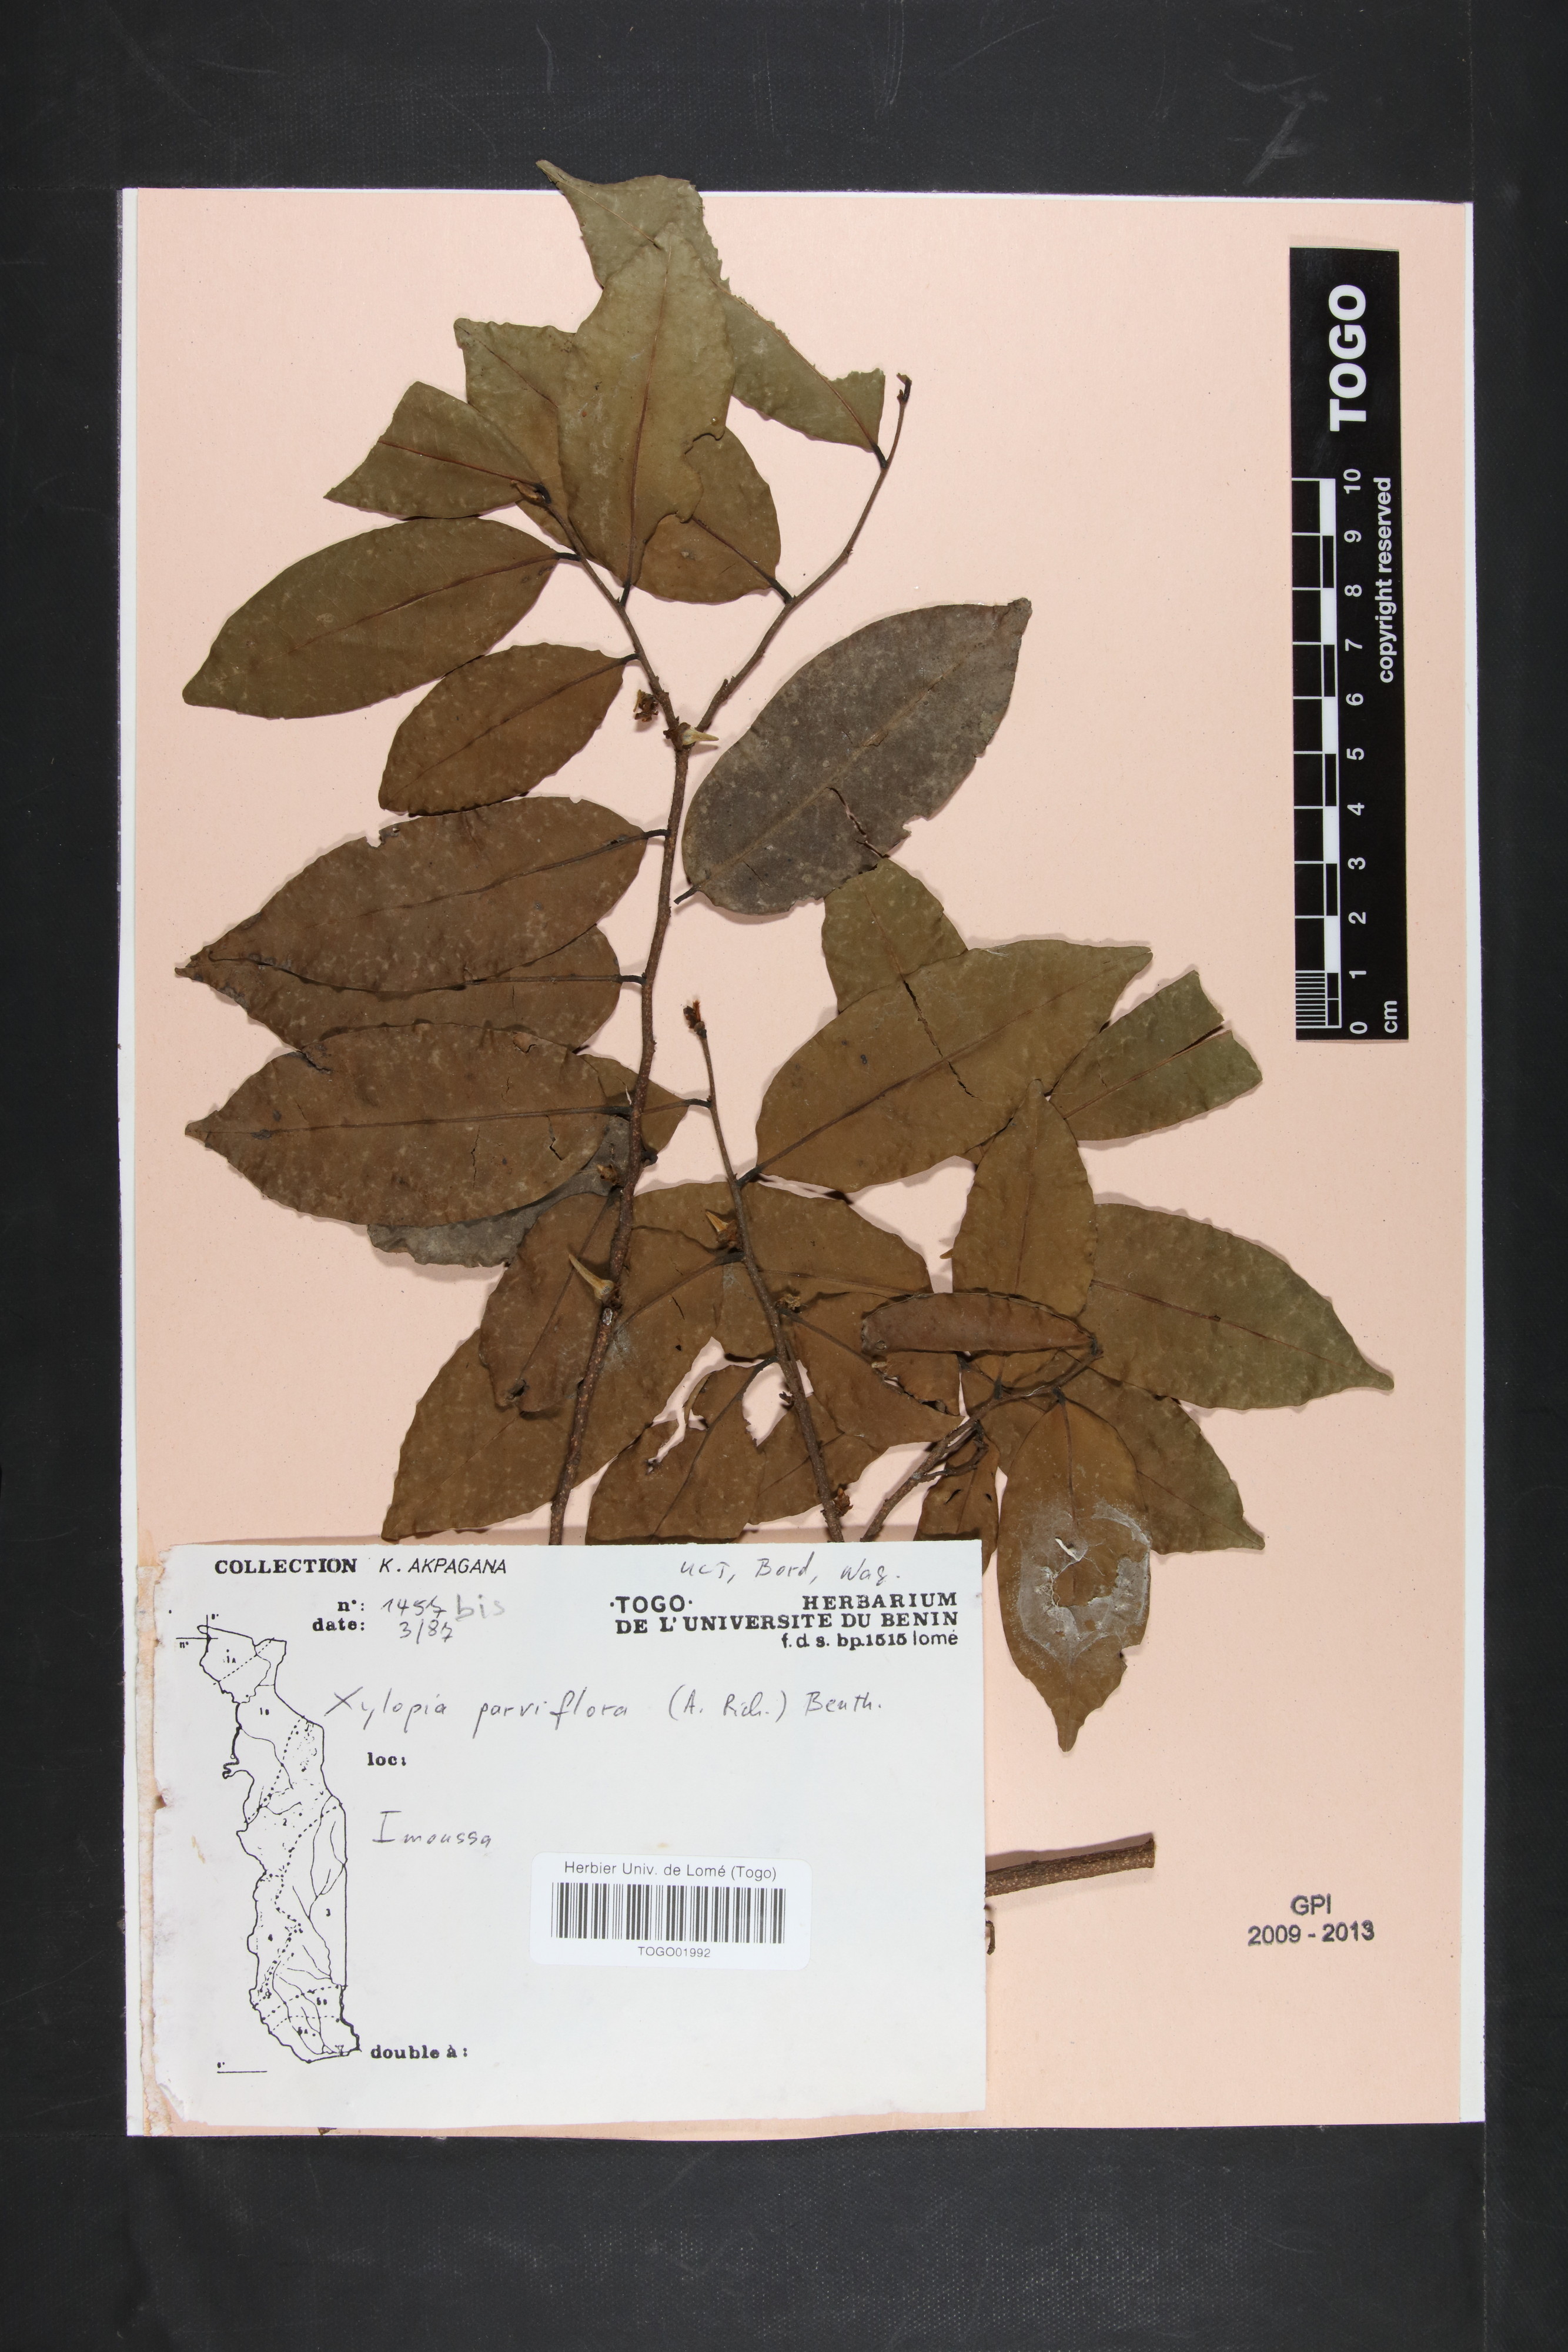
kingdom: Plantae
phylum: Tracheophyta
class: Magnoliopsida
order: Magnoliales
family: Annonaceae
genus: Xylopia
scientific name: Xylopia parviflora
